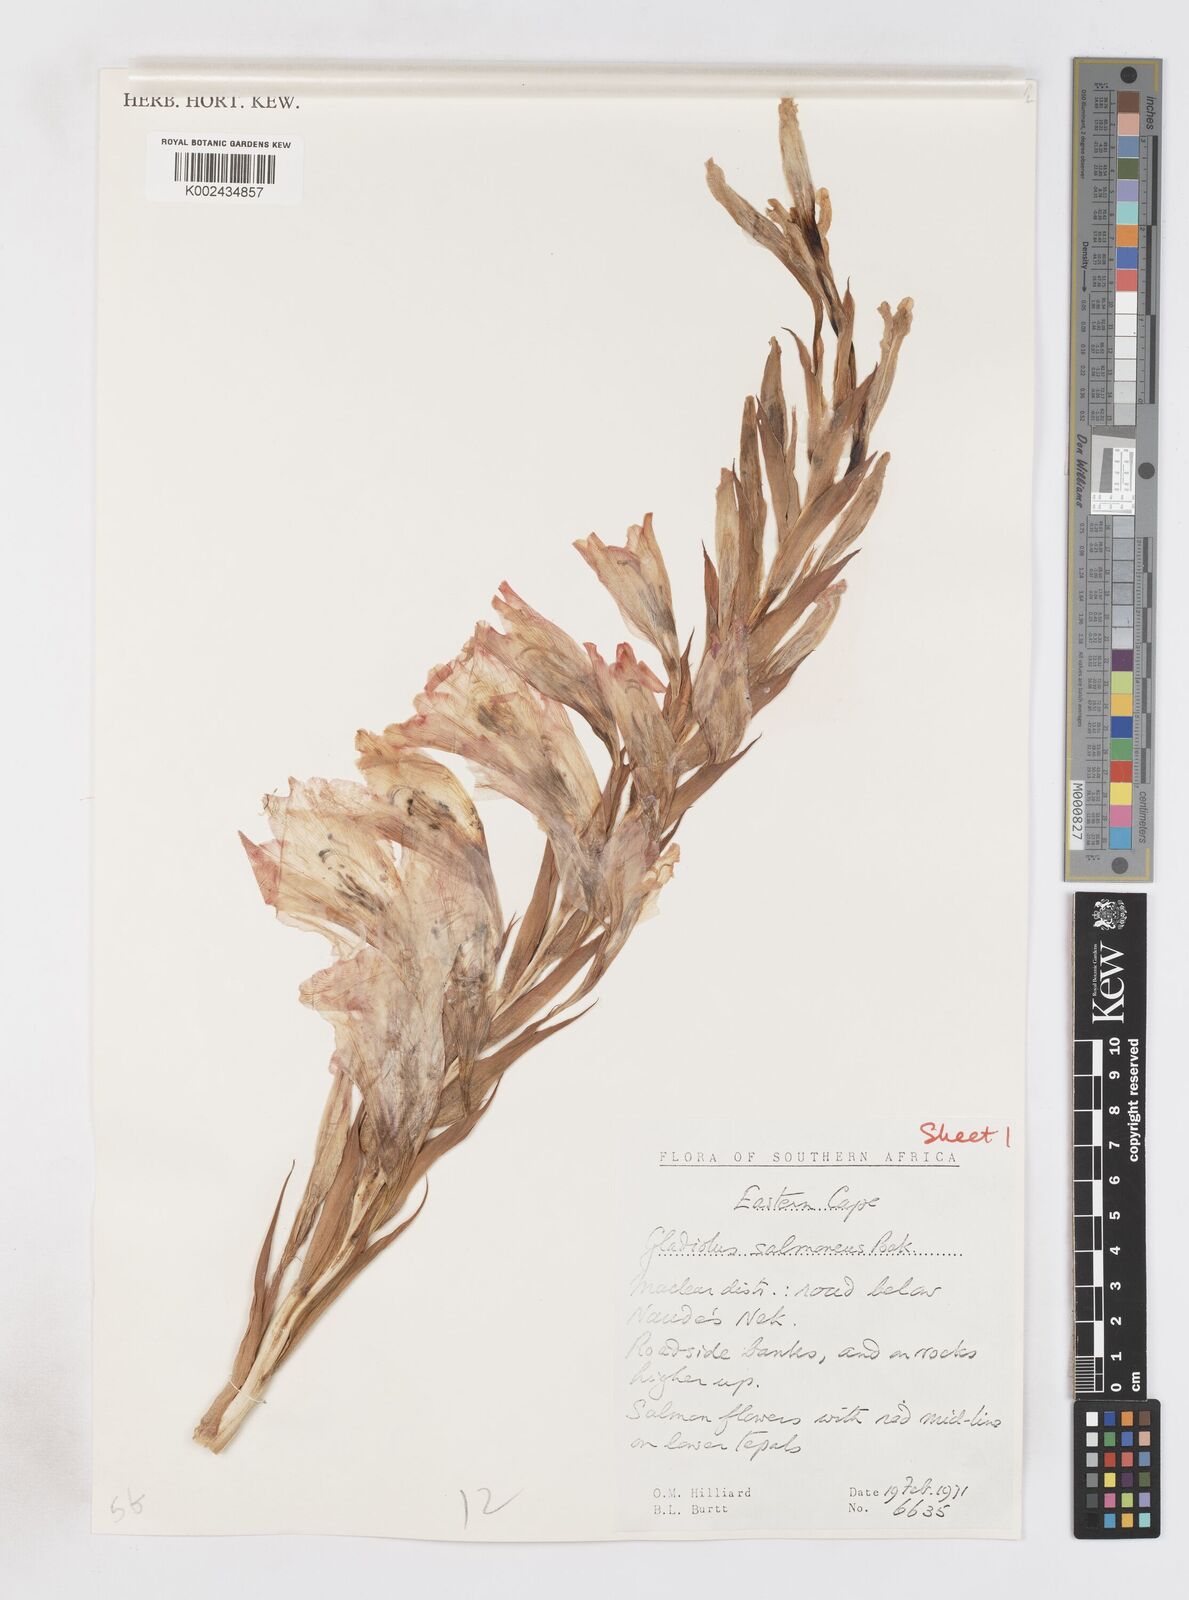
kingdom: Plantae
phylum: Tracheophyta
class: Liliopsida
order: Asparagales
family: Iridaceae
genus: Gladiolus
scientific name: Gladiolus oppositiflorus
